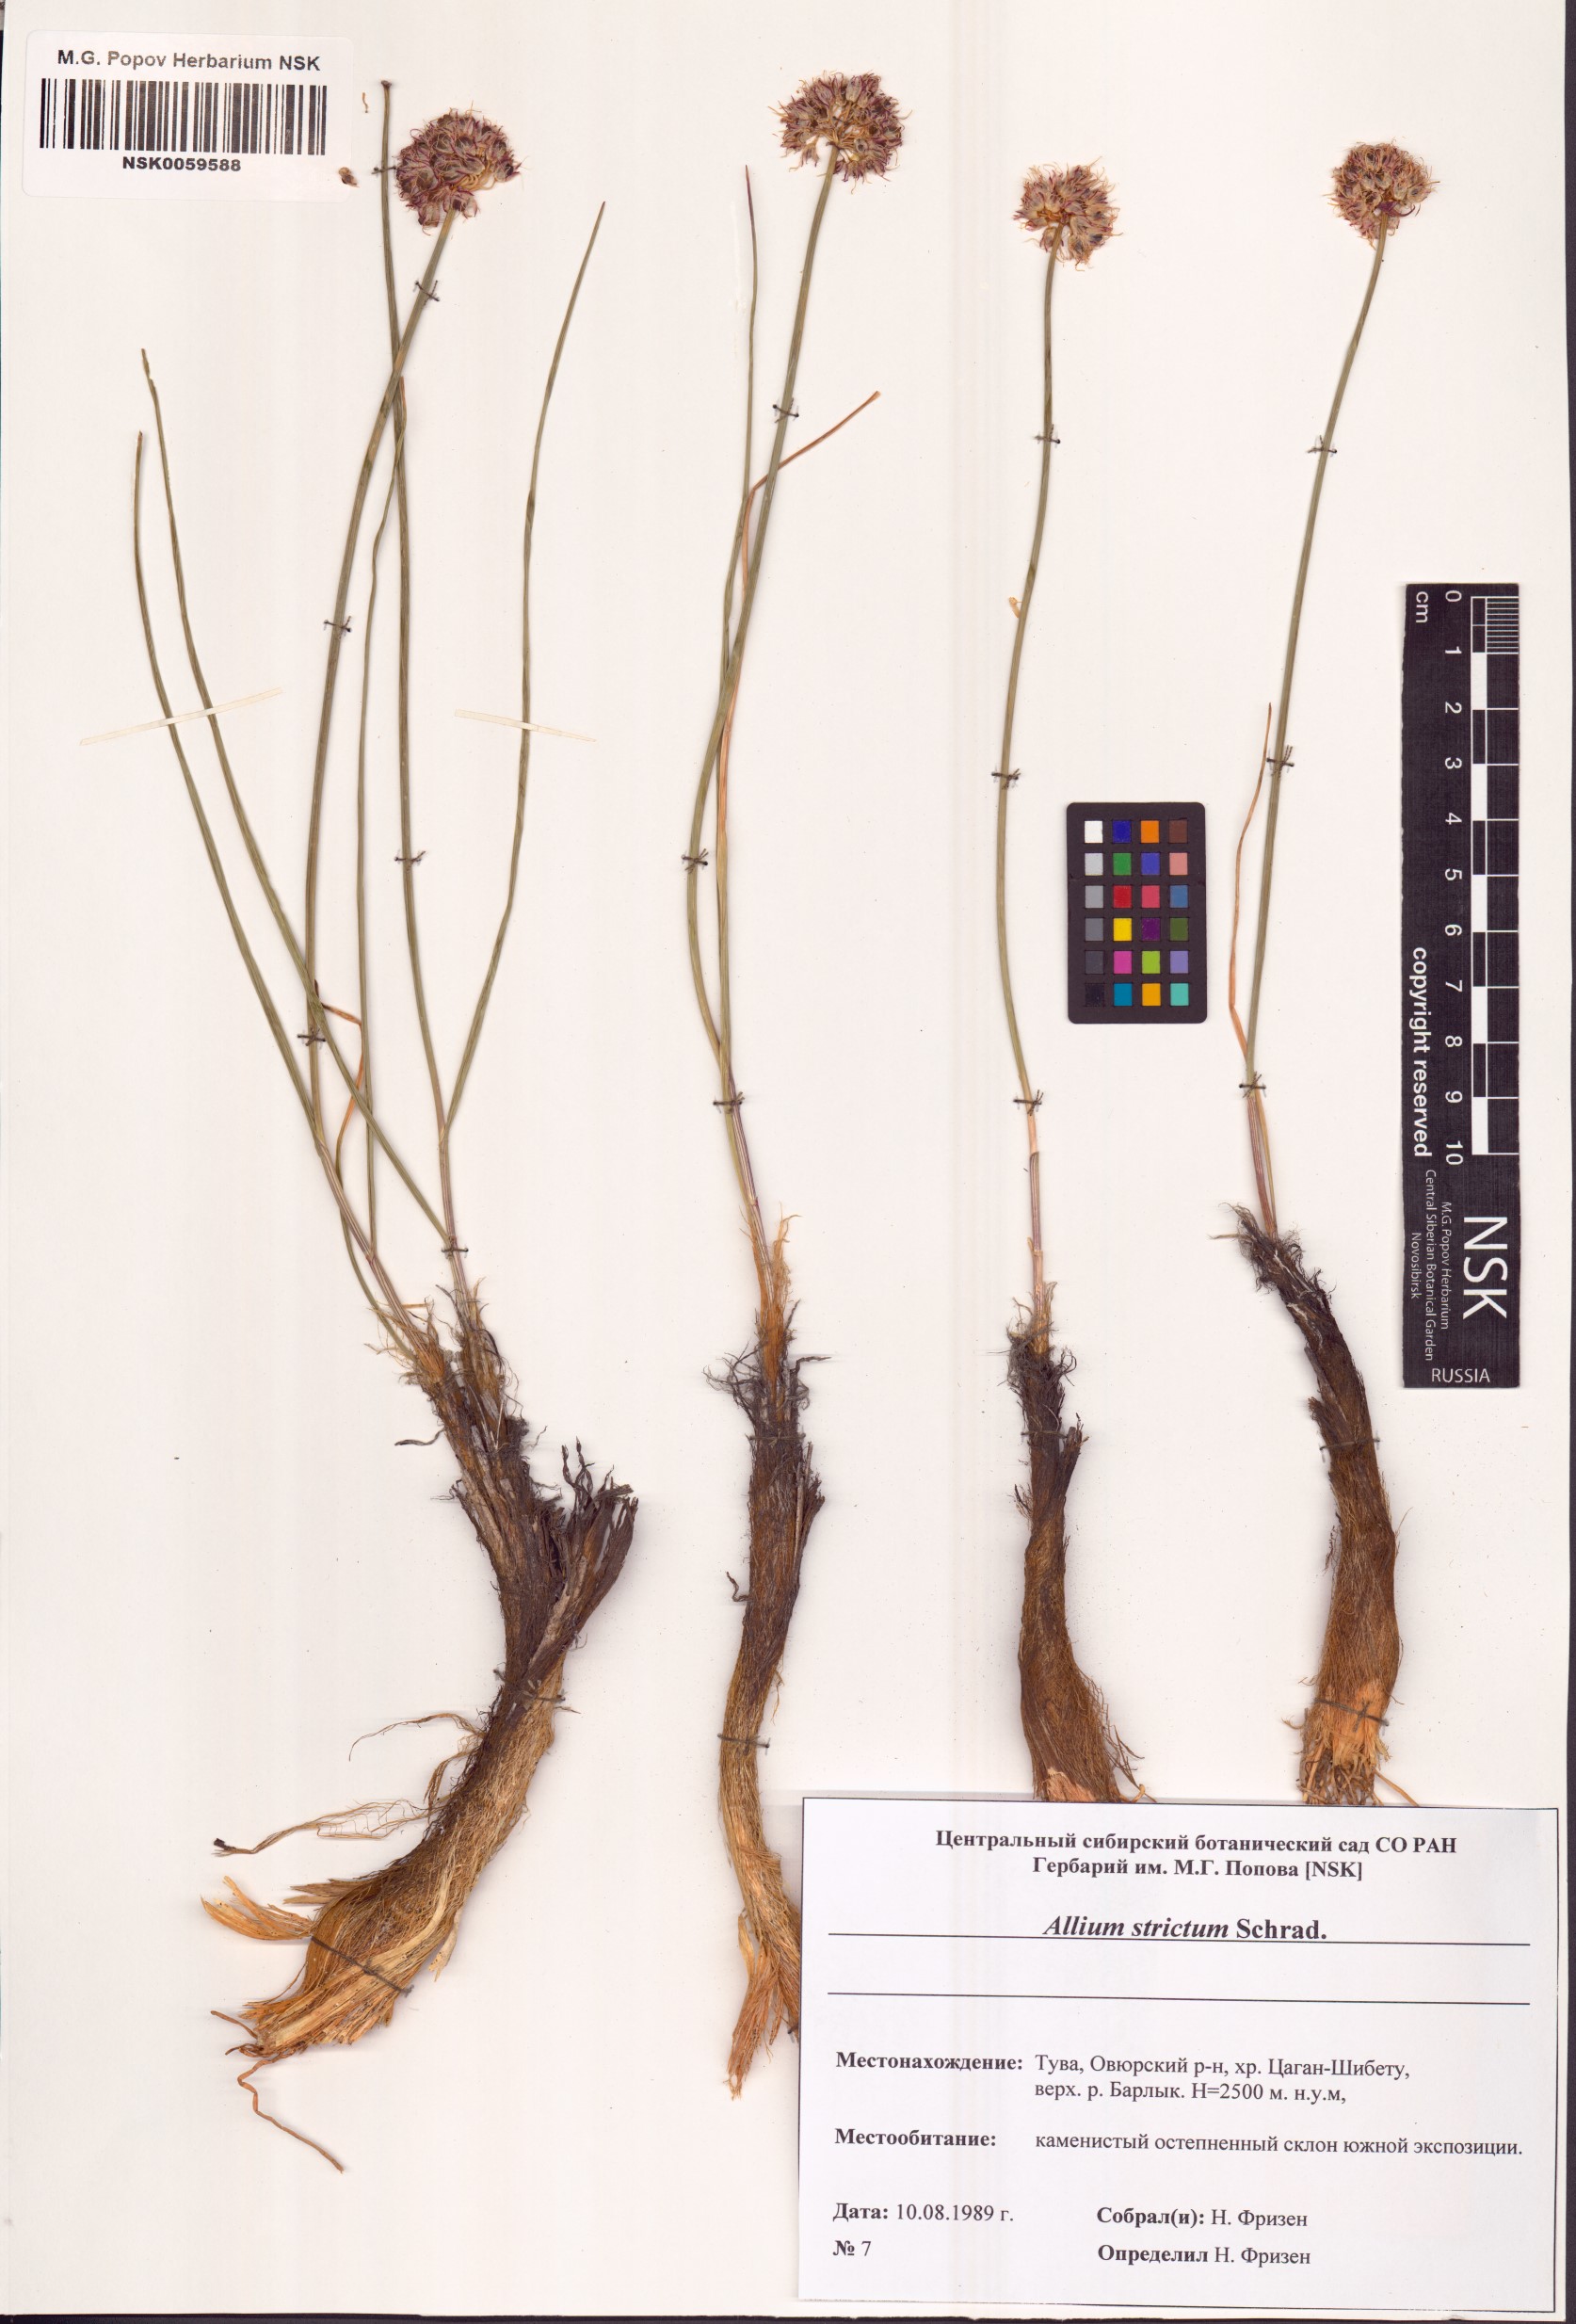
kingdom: Plantae
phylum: Tracheophyta
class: Liliopsida
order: Asparagales
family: Amaryllidaceae
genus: Allium
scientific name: Allium strictum
